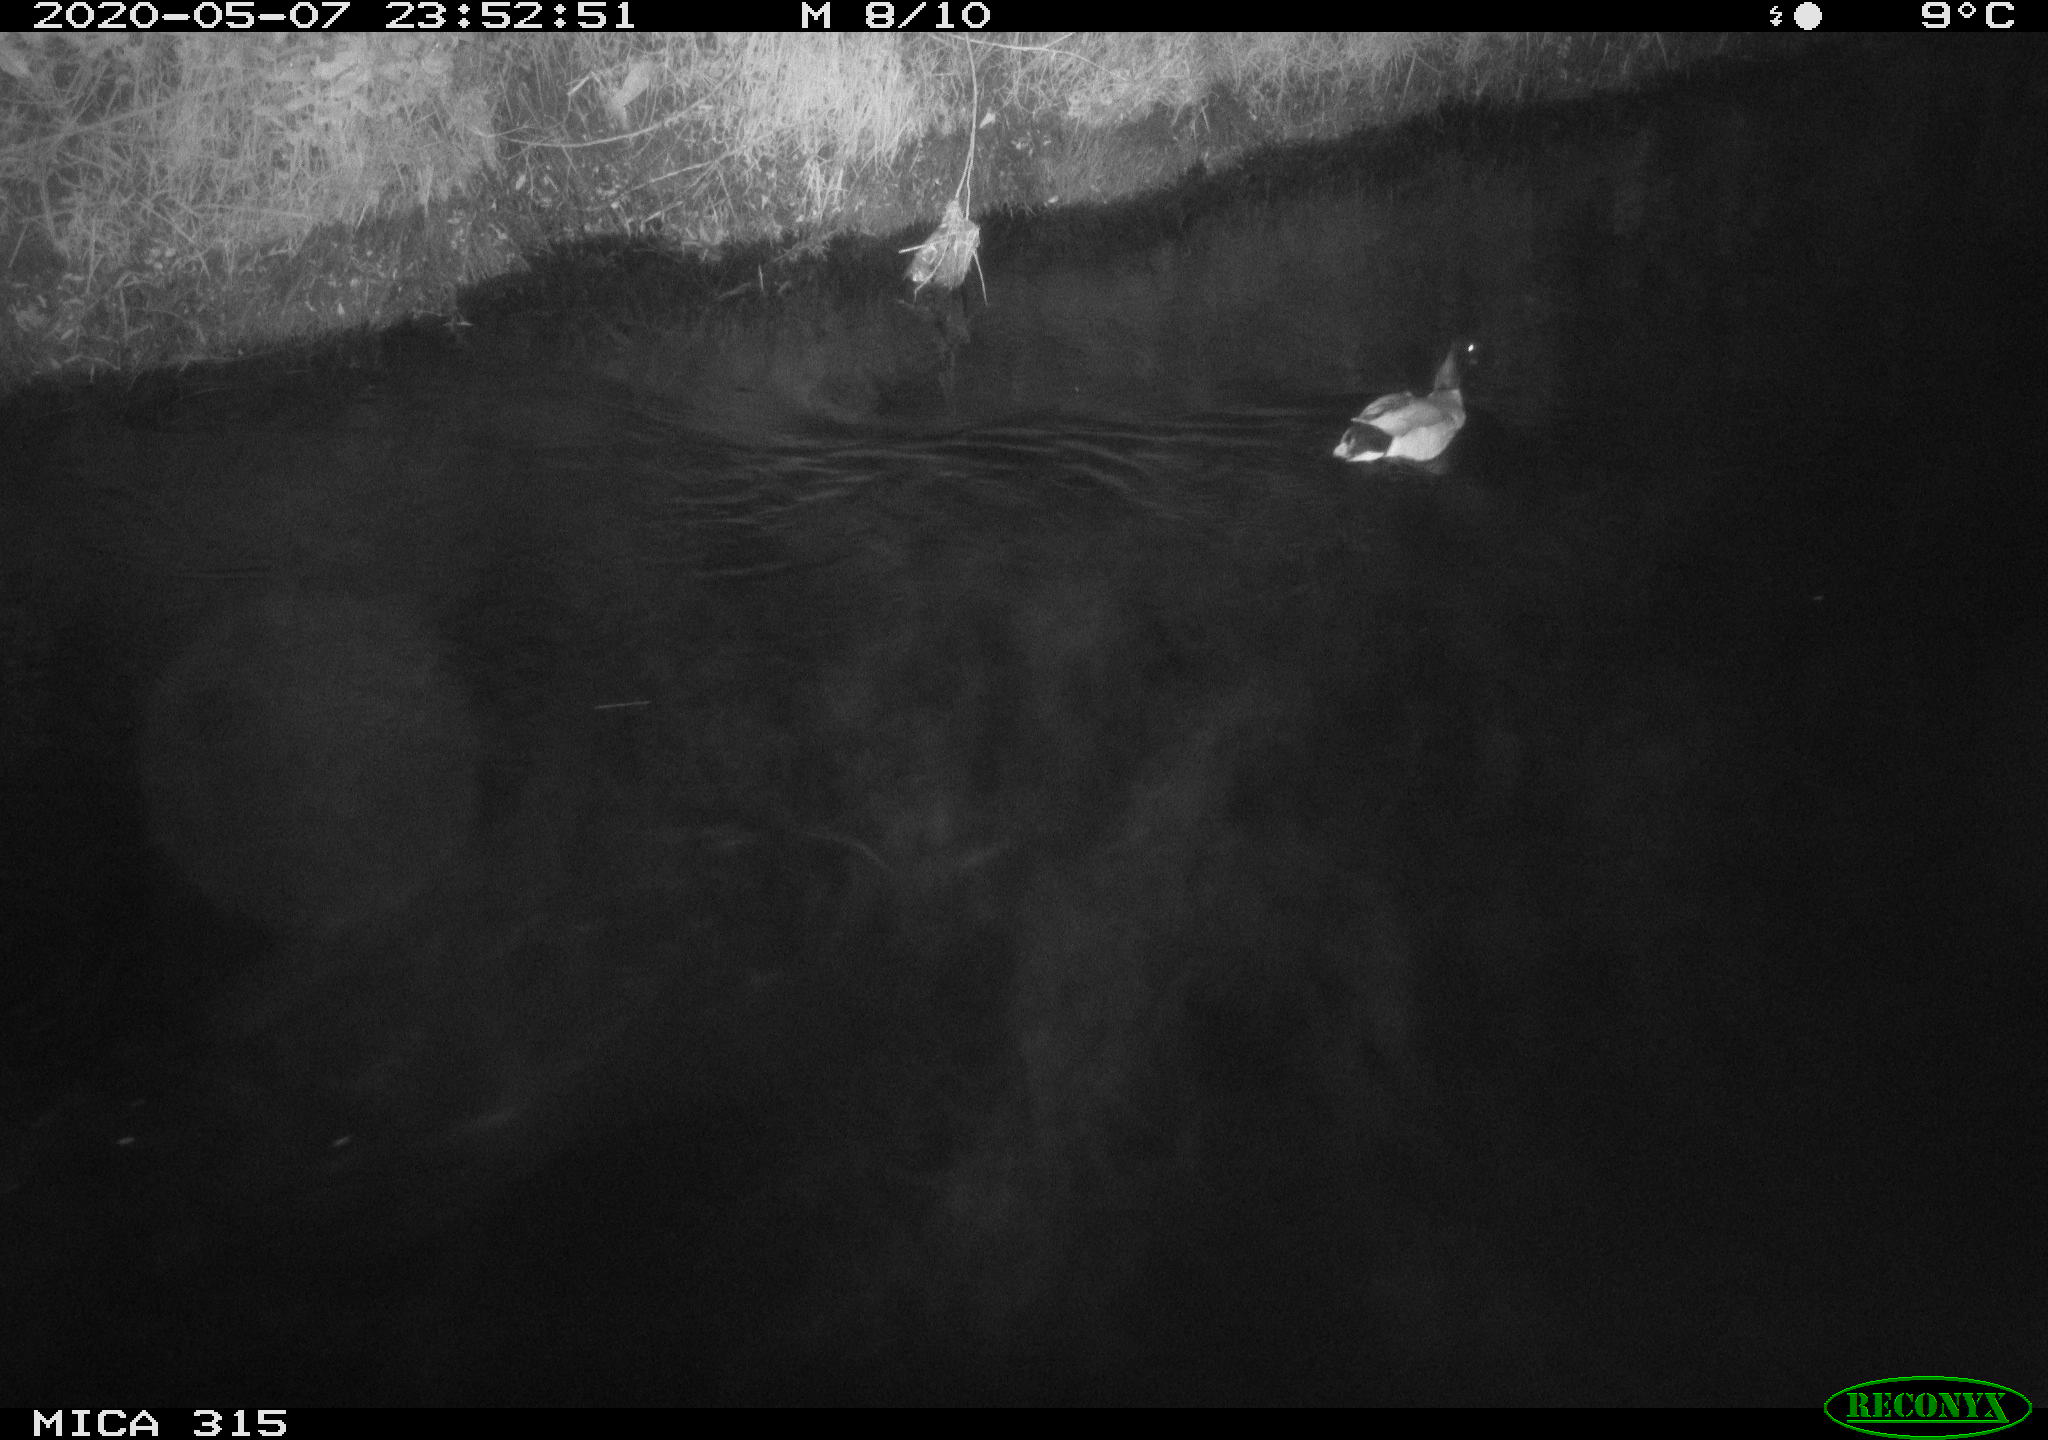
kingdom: Animalia
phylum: Chordata
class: Aves
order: Anseriformes
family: Anatidae
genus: Anas
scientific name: Anas platyrhynchos
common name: Mallard
